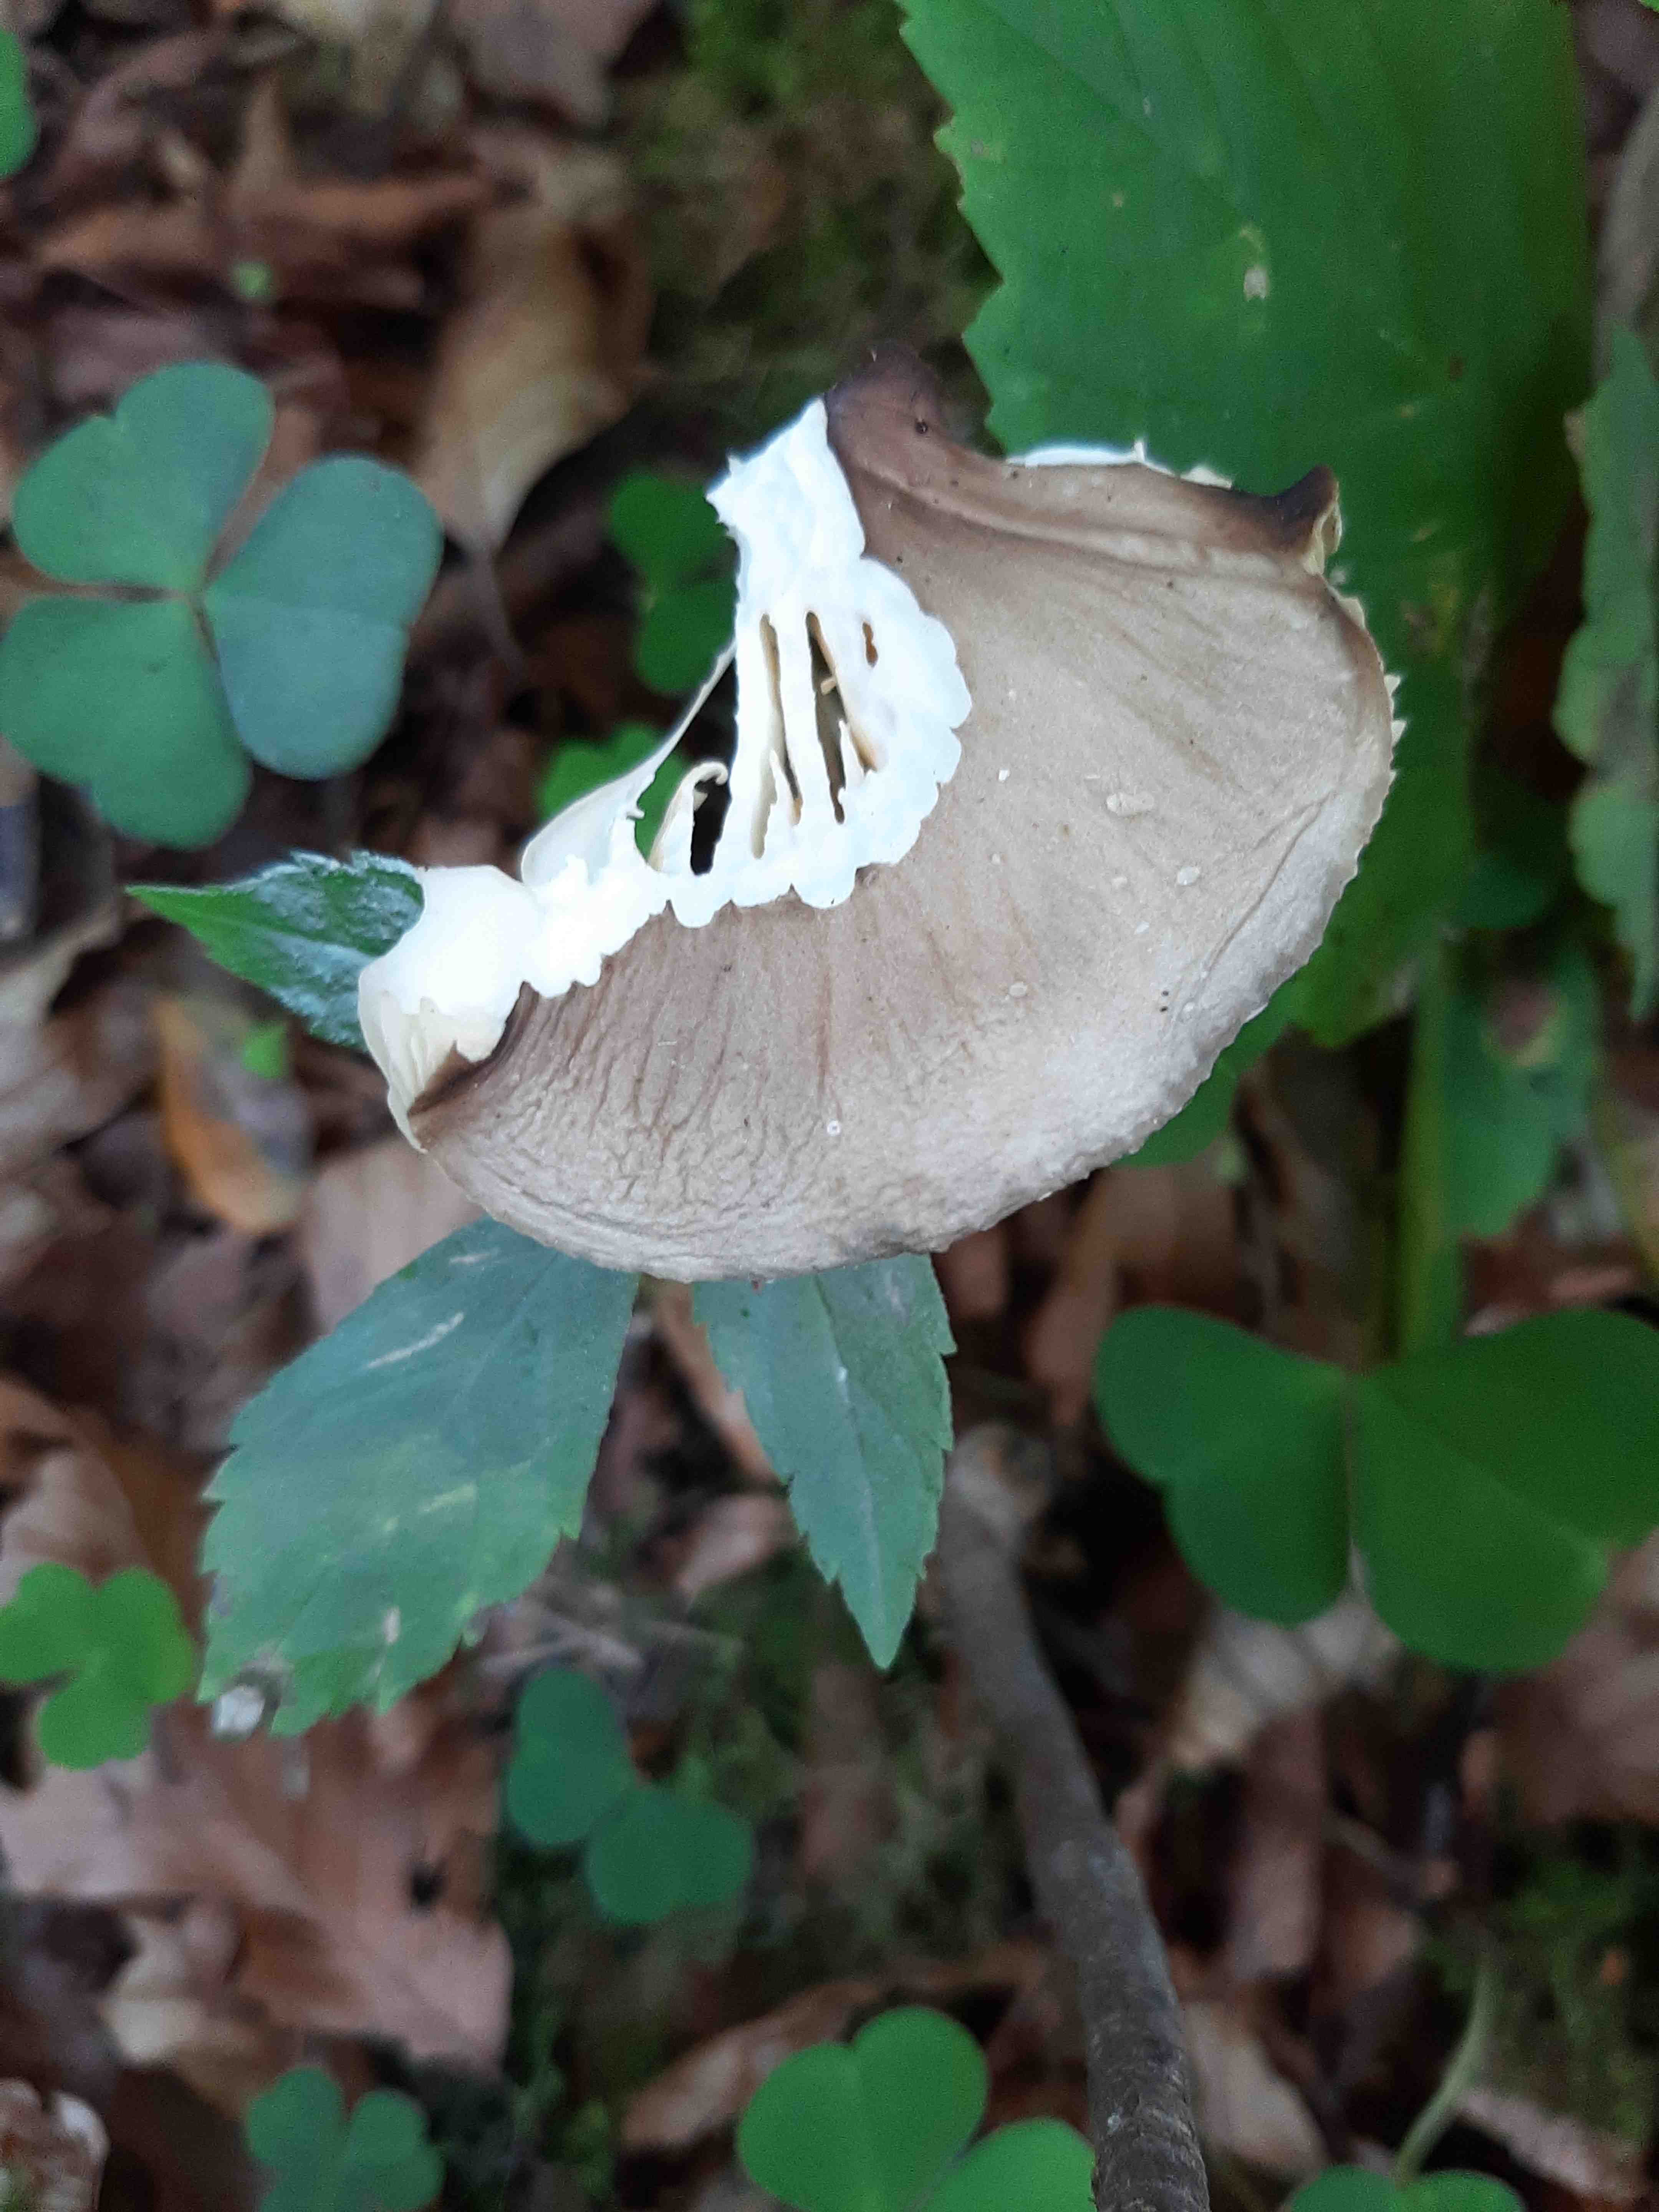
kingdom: Fungi
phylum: Basidiomycota
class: Agaricomycetes
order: Agaricales
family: Physalacriaceae
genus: Hymenopellis
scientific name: Hymenopellis radicata
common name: almindelig pælerodshat
